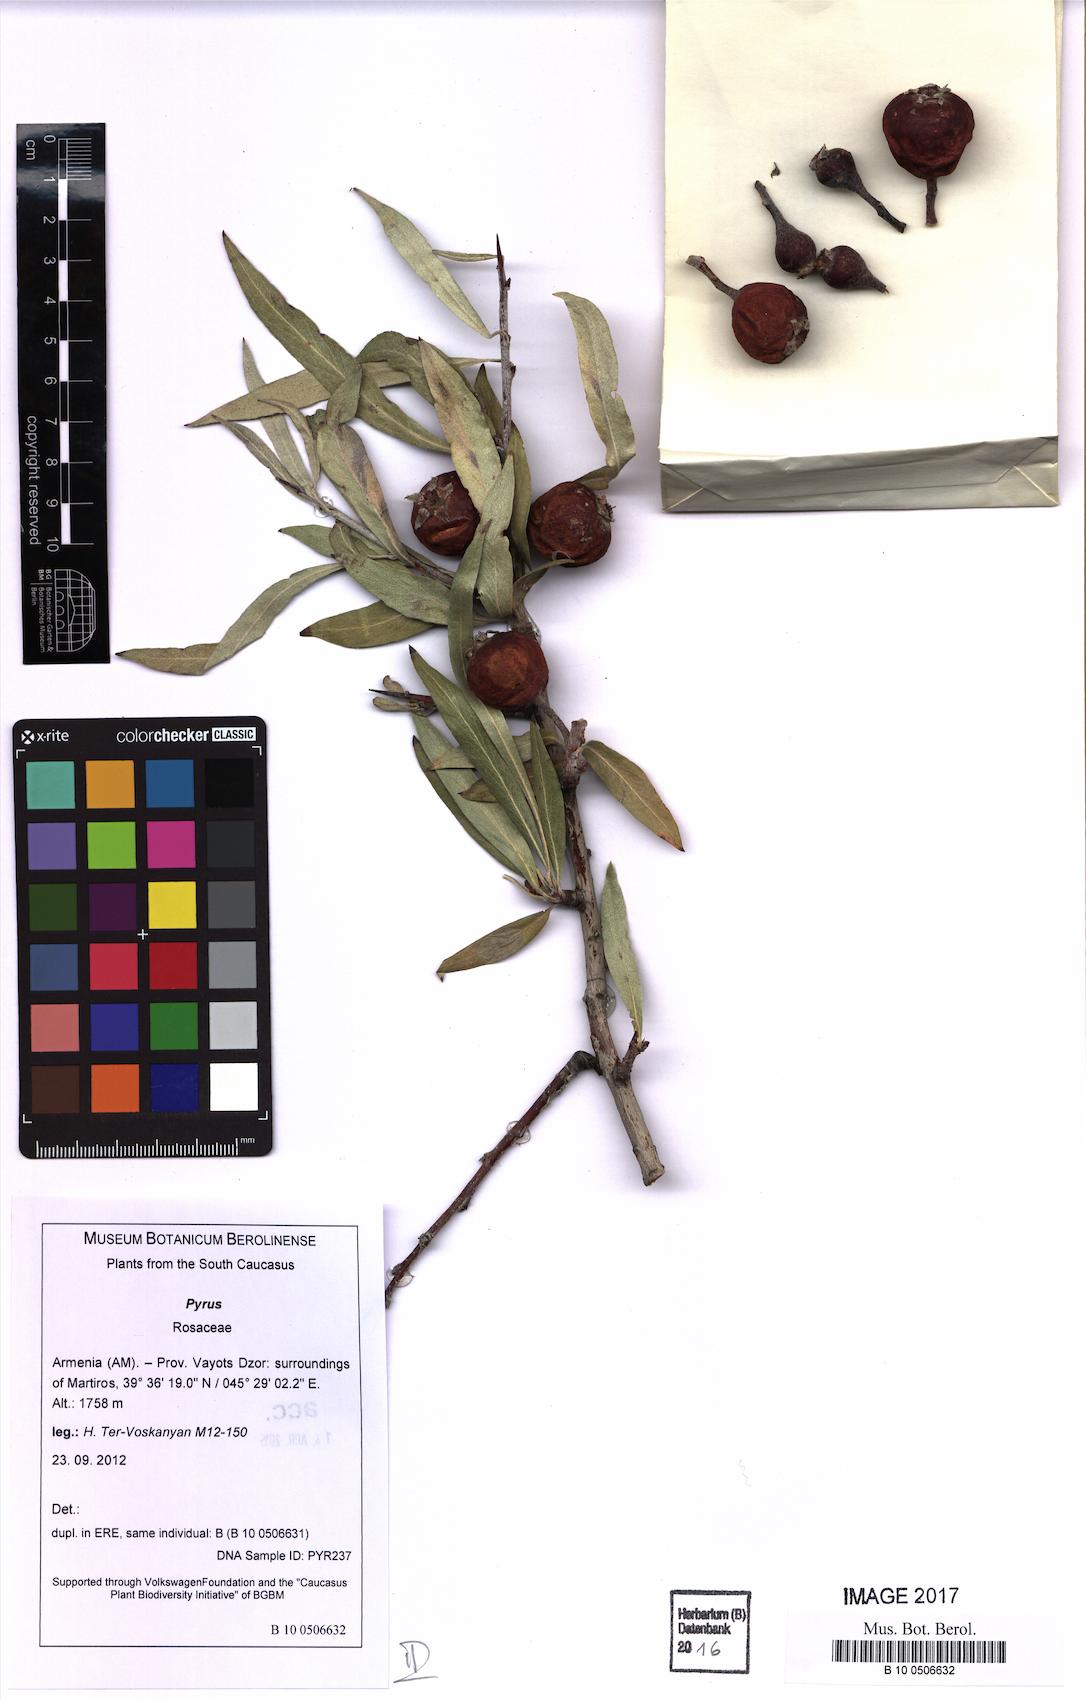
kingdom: Plantae
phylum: Tracheophyta
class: Magnoliopsida
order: Rosales
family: Rosaceae
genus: Pyrus
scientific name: Pyrus
